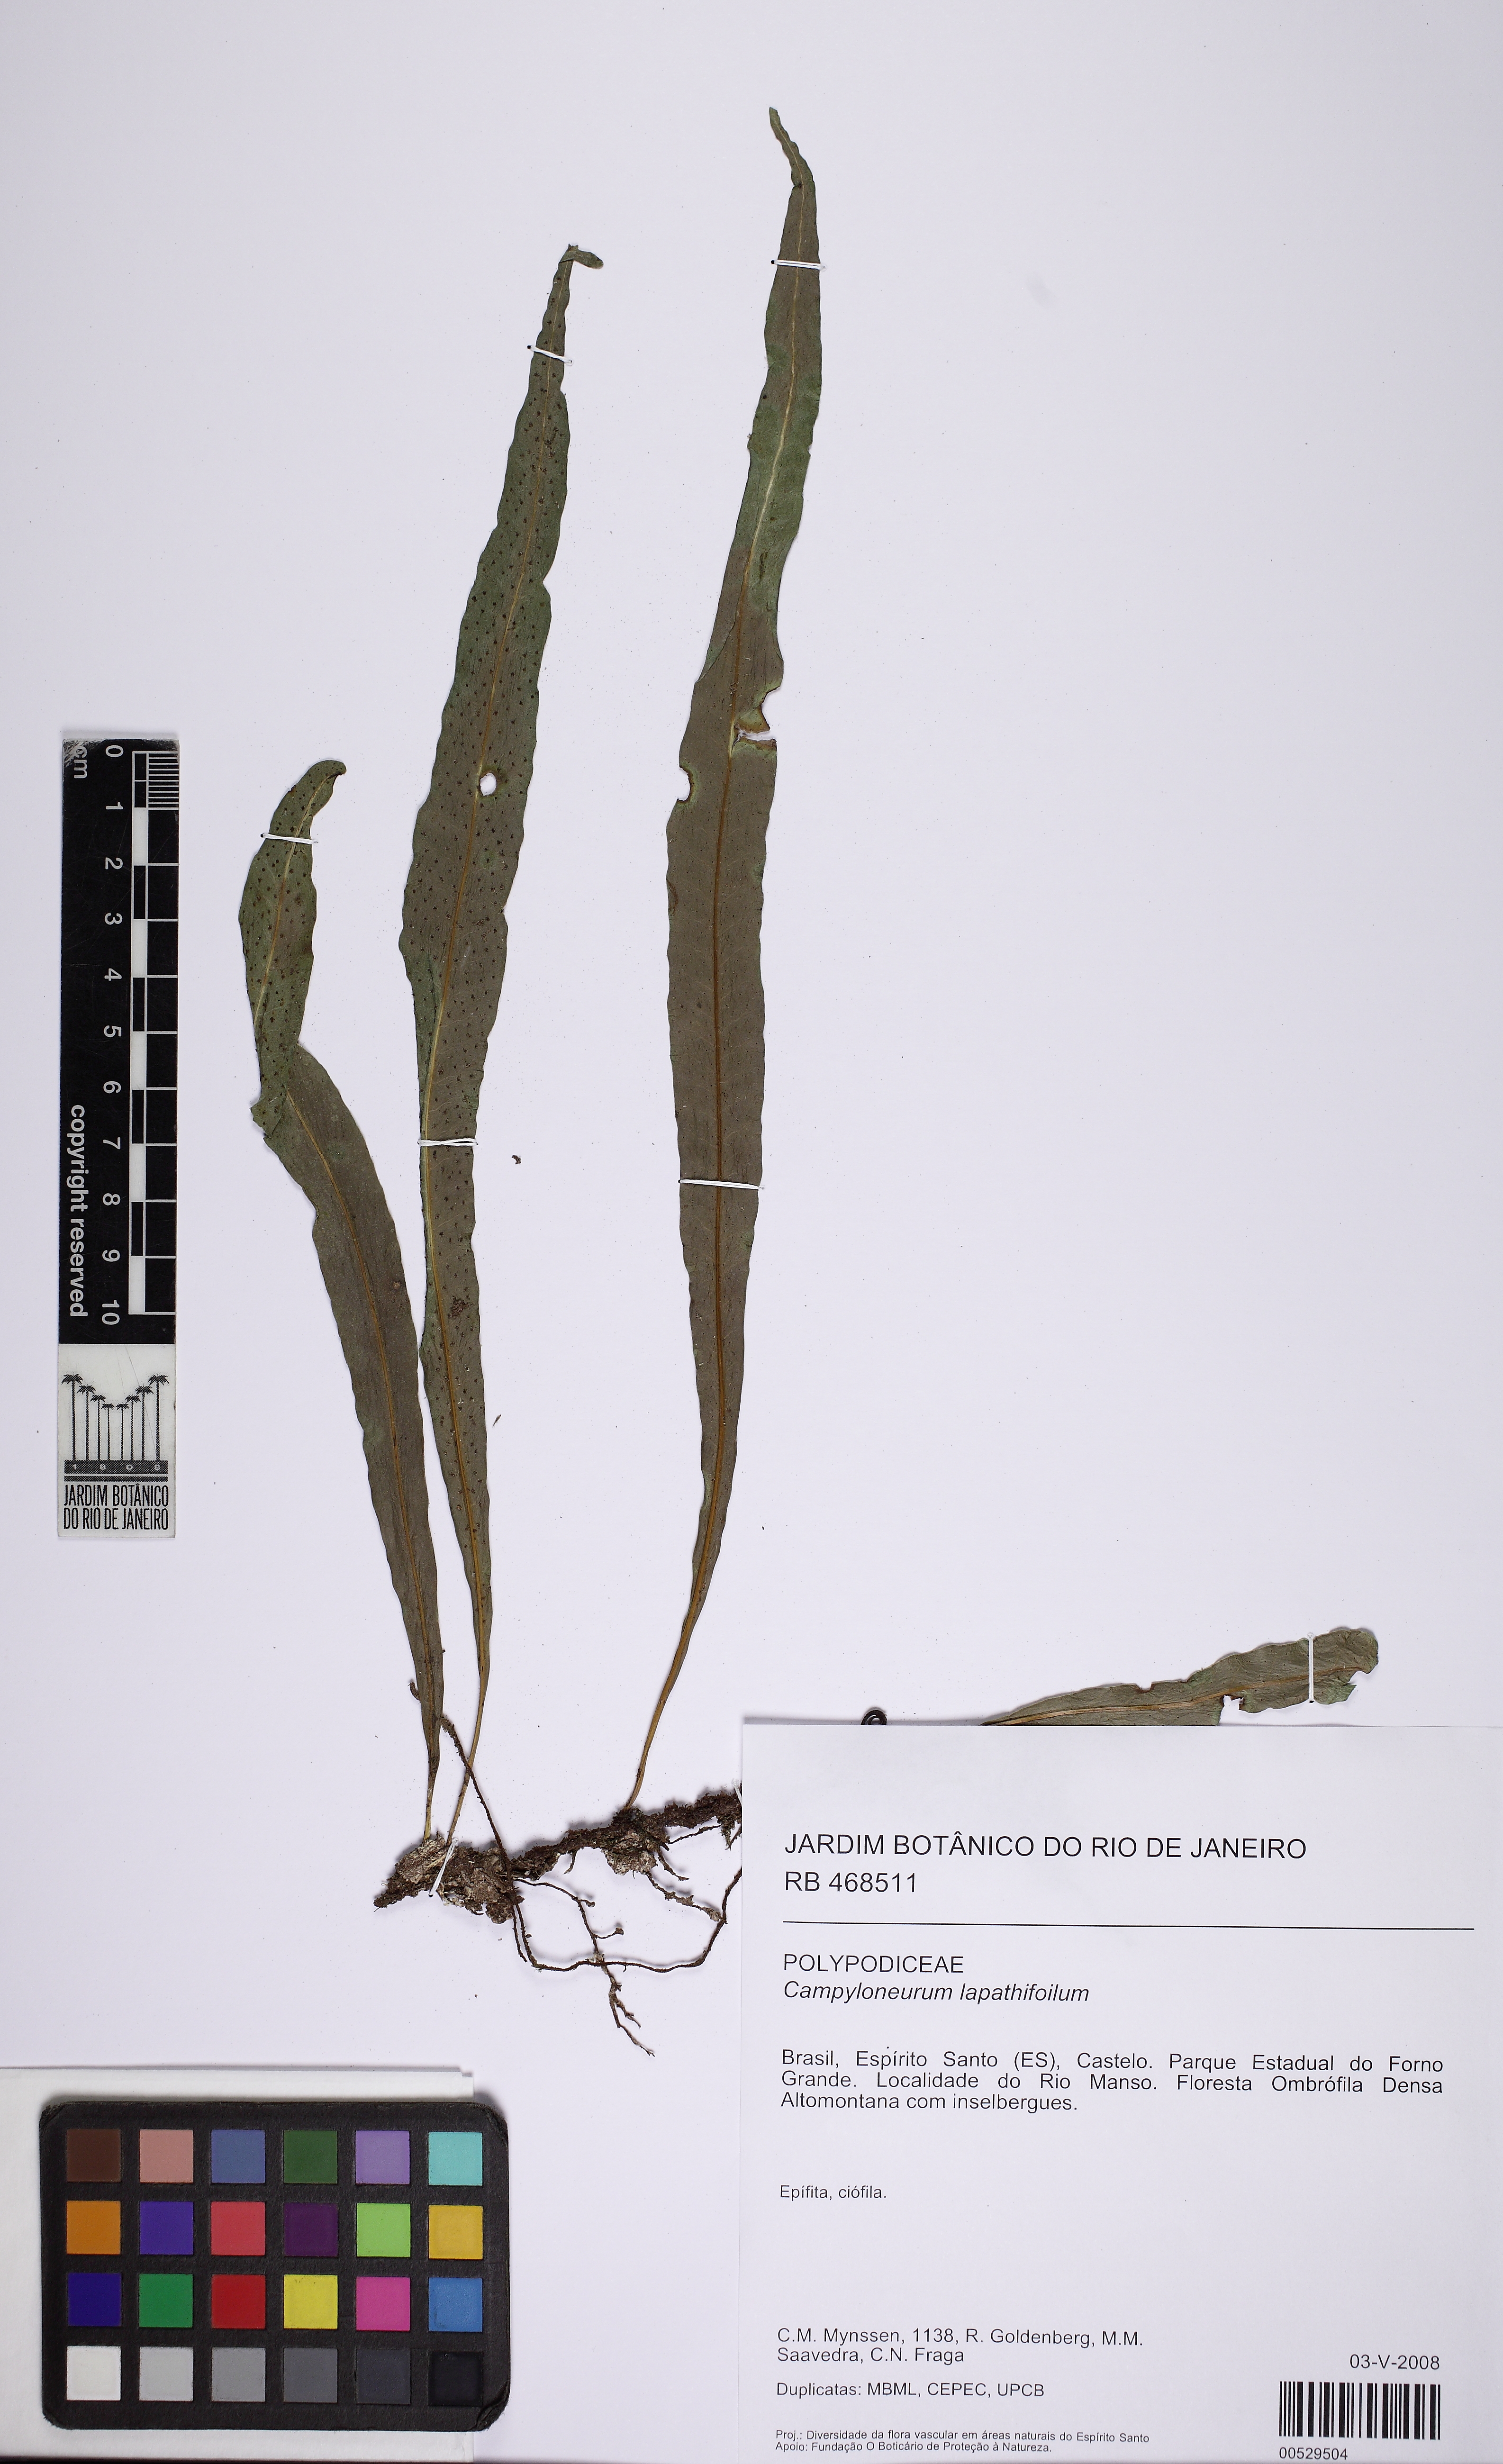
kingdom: Plantae
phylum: Tracheophyta
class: Polypodiopsida
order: Polypodiales
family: Polypodiaceae
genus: Campyloneurum
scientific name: Campyloneurum repens
